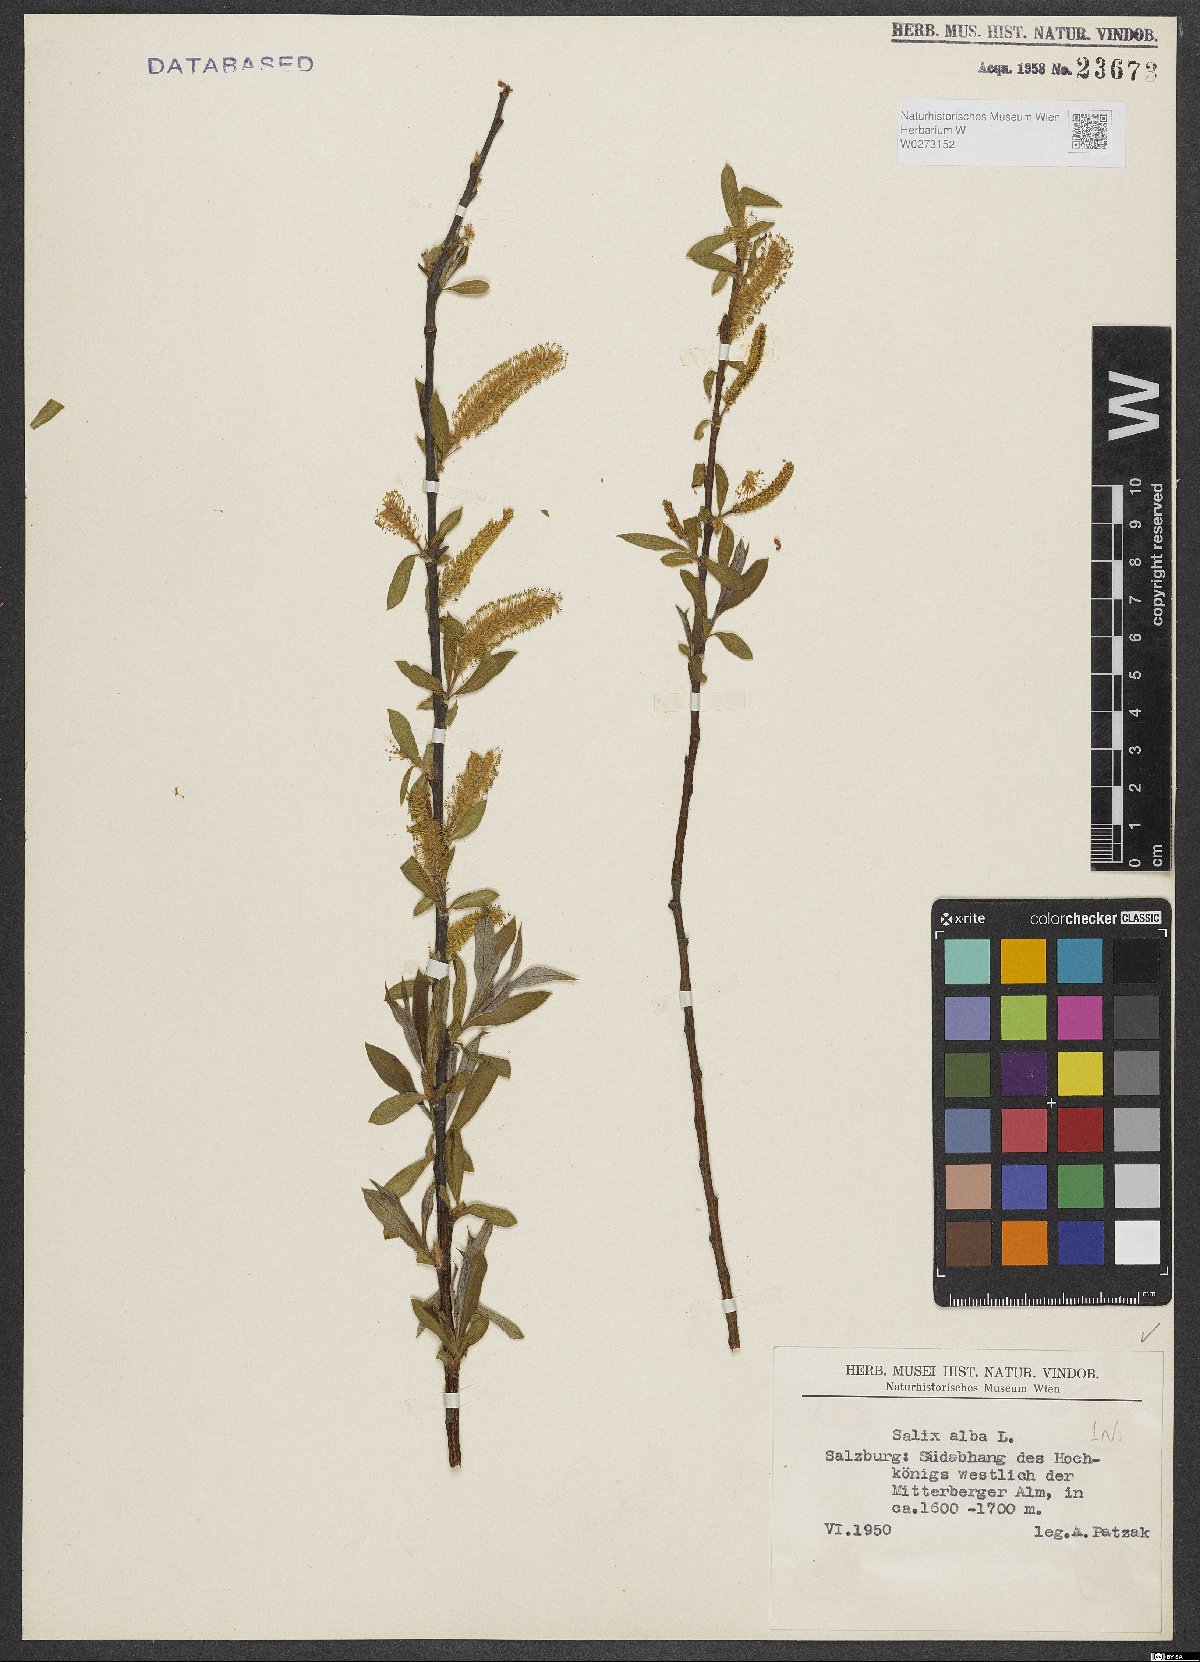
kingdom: Plantae
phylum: Tracheophyta
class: Magnoliopsida
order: Malpighiales
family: Salicaceae
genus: Salix
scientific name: Salix alba
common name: White willow
